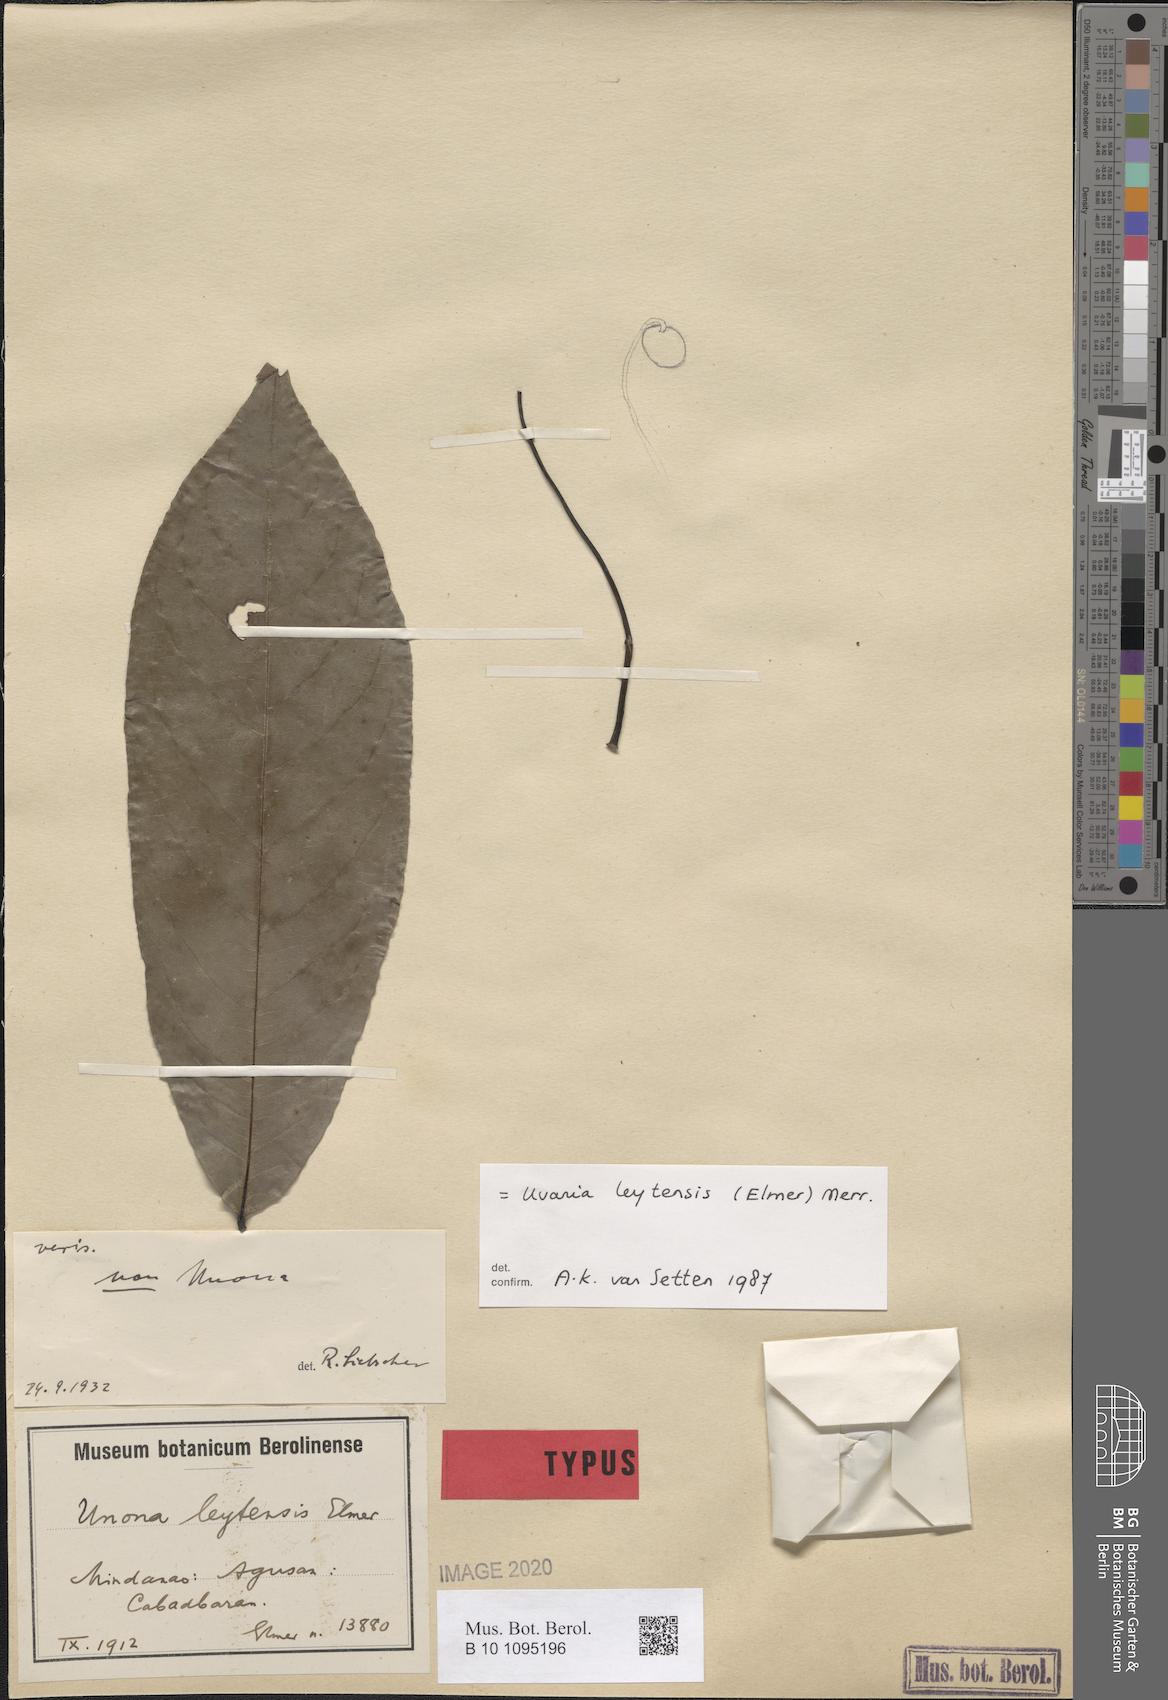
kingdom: Plantae
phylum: Tracheophyta
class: Magnoliopsida
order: Magnoliales
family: Annonaceae
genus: Uvaria
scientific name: Uvaria concava
